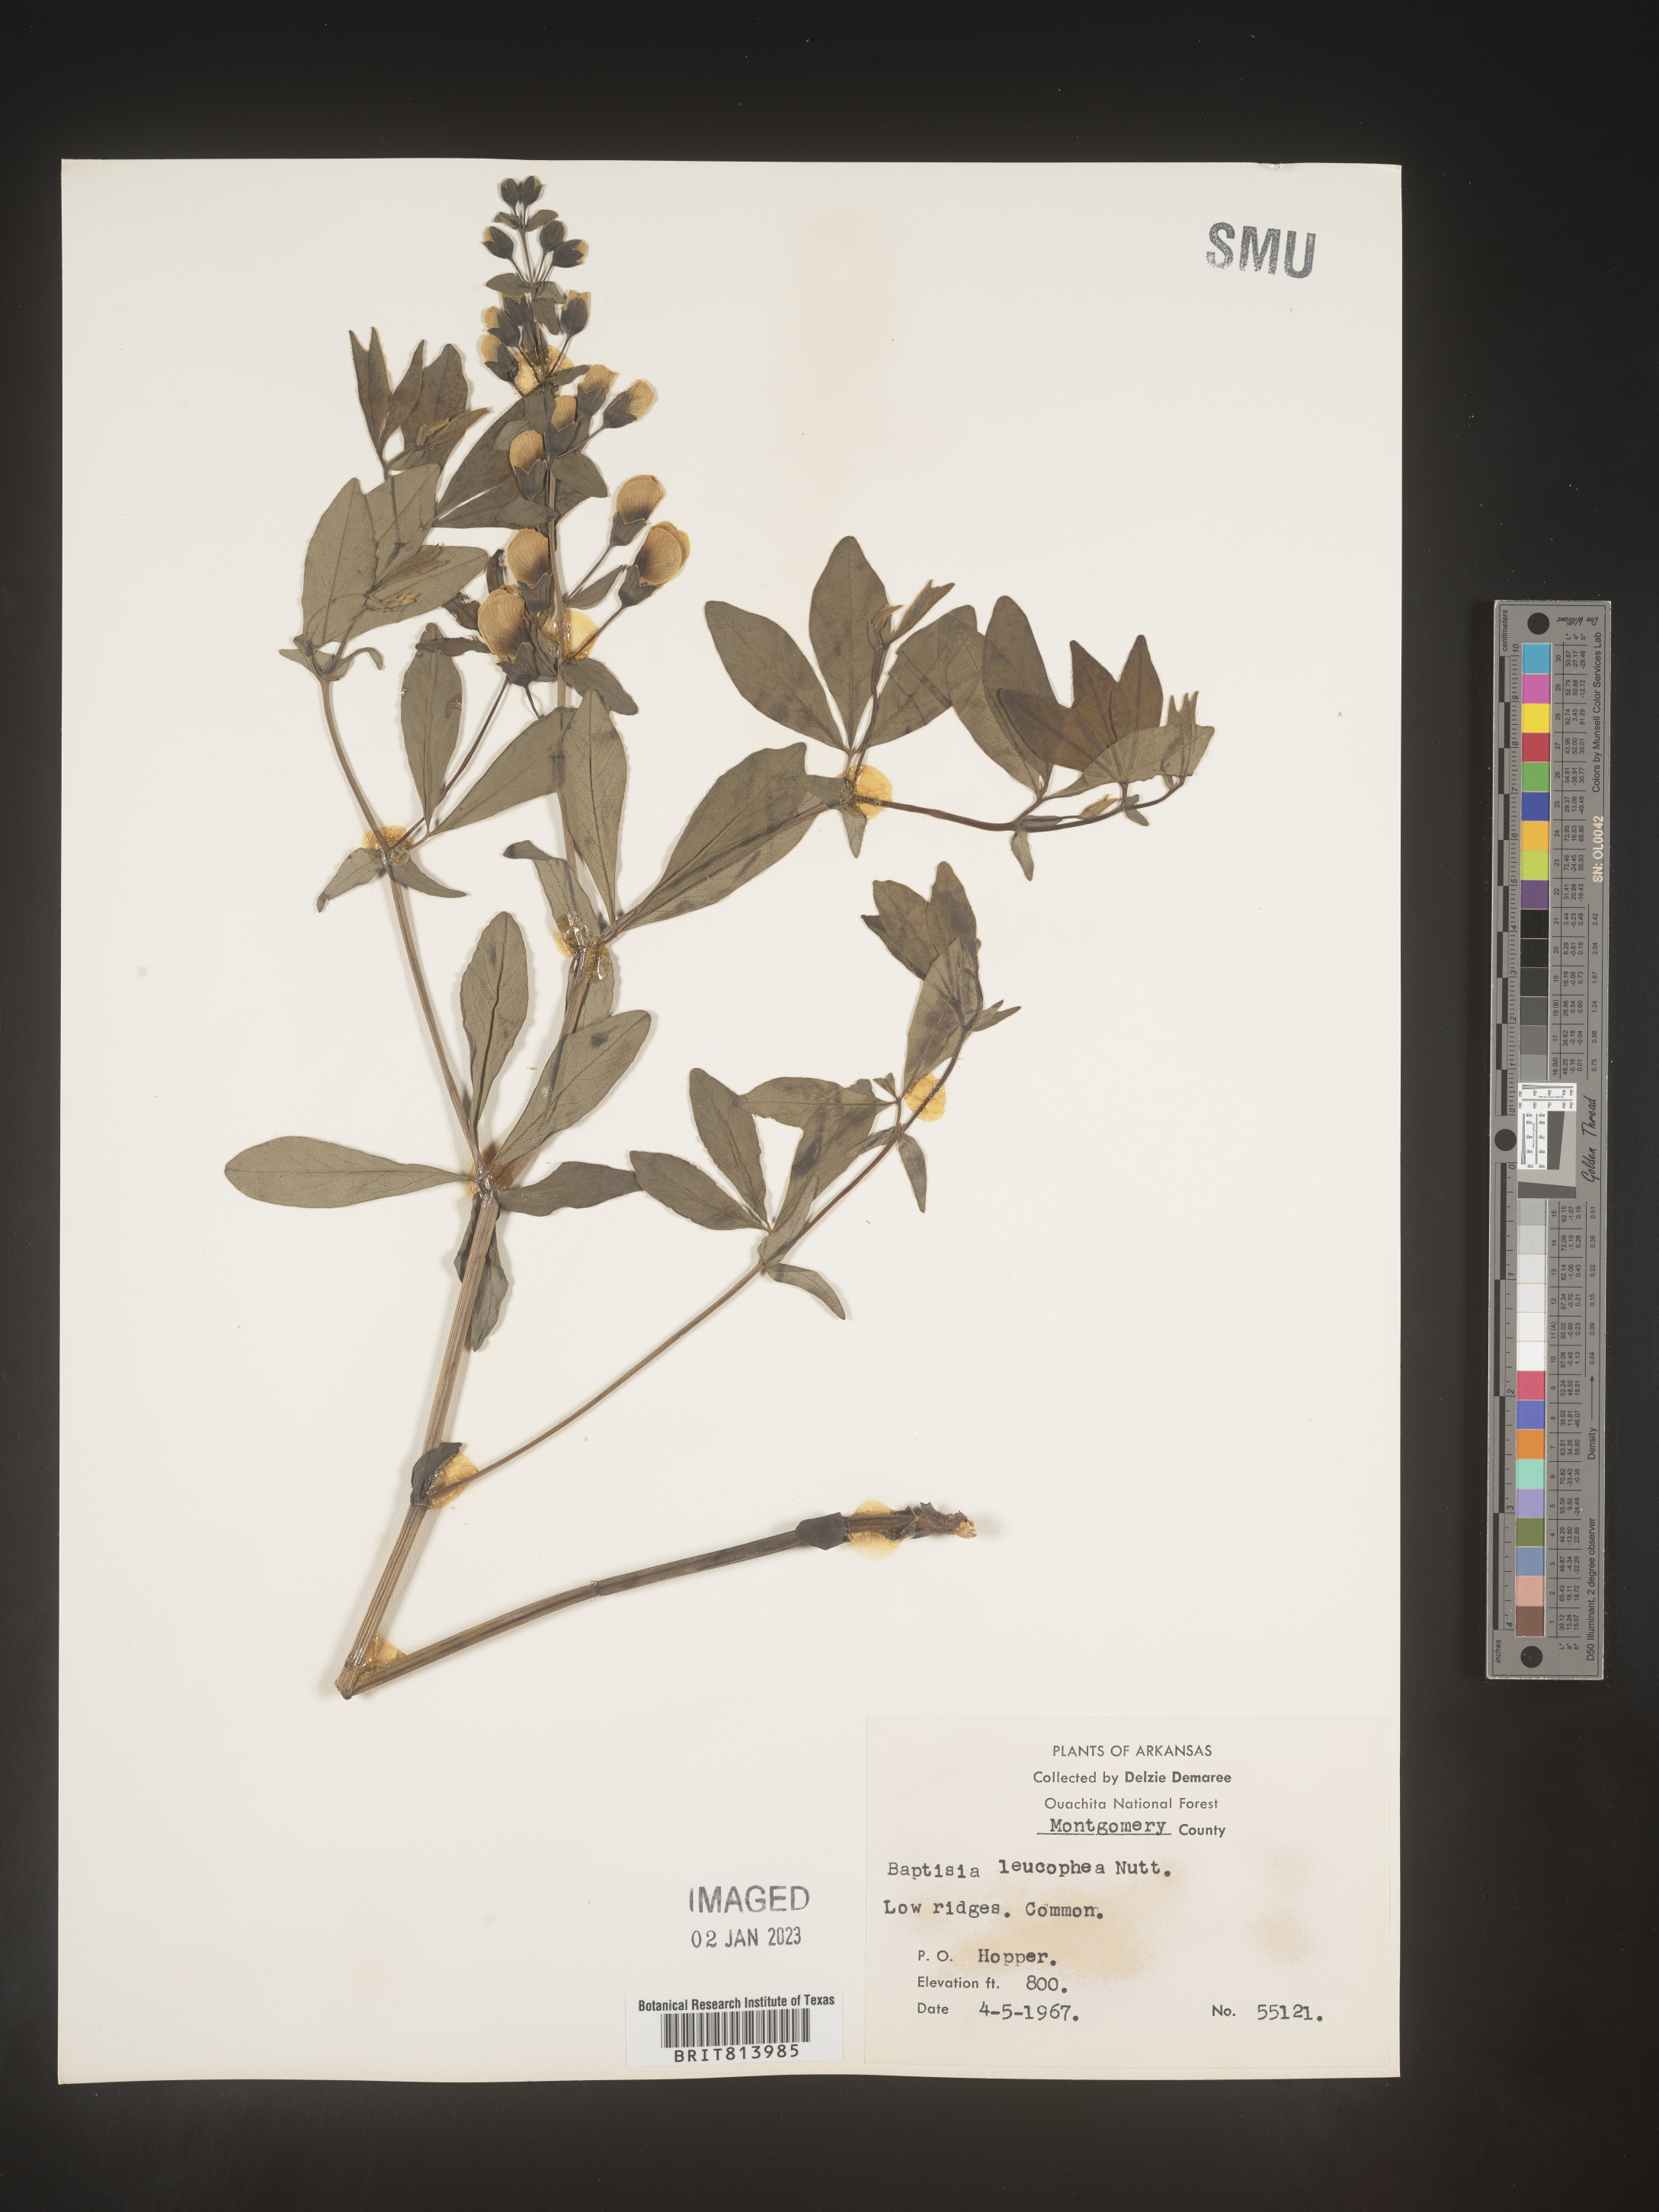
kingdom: Plantae
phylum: Tracheophyta
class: Magnoliopsida
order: Fabales
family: Fabaceae
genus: Baptisia
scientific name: Baptisia bracteata
